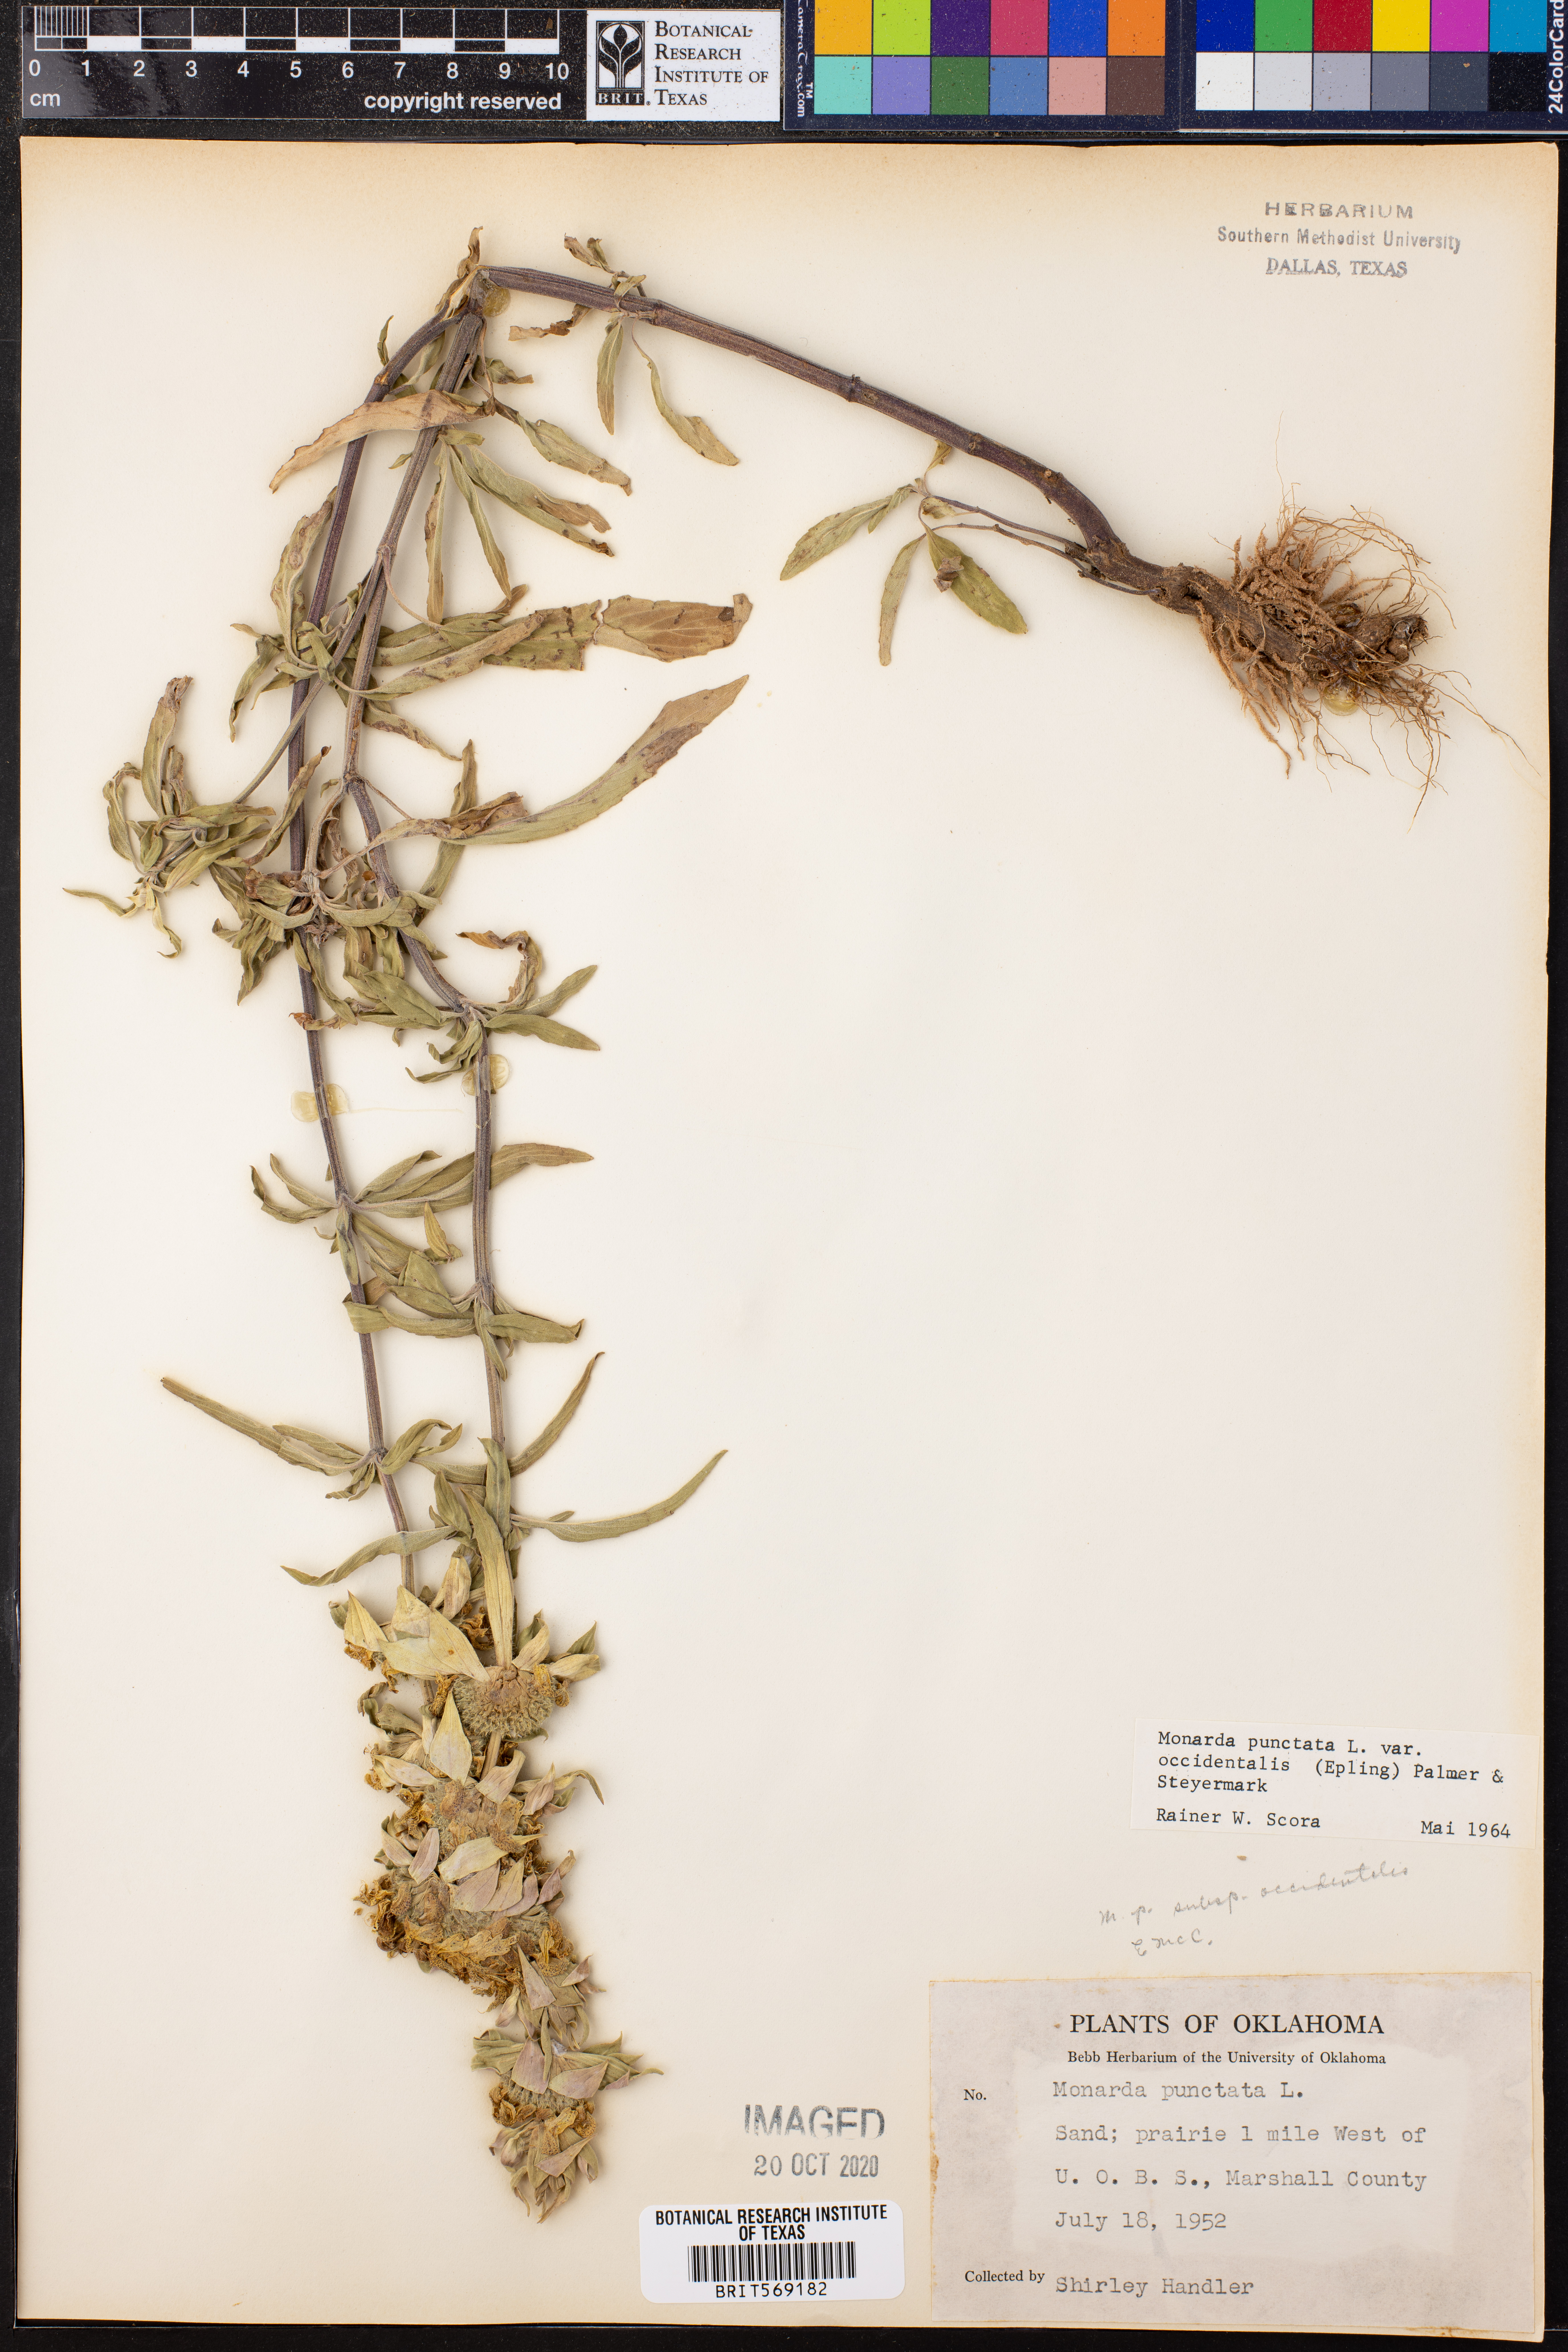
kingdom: Plantae
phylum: Tracheophyta
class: Magnoliopsida
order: Lamiales
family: Lamiaceae
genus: Monarda
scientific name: Monarda punctata
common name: Dotted monarda
